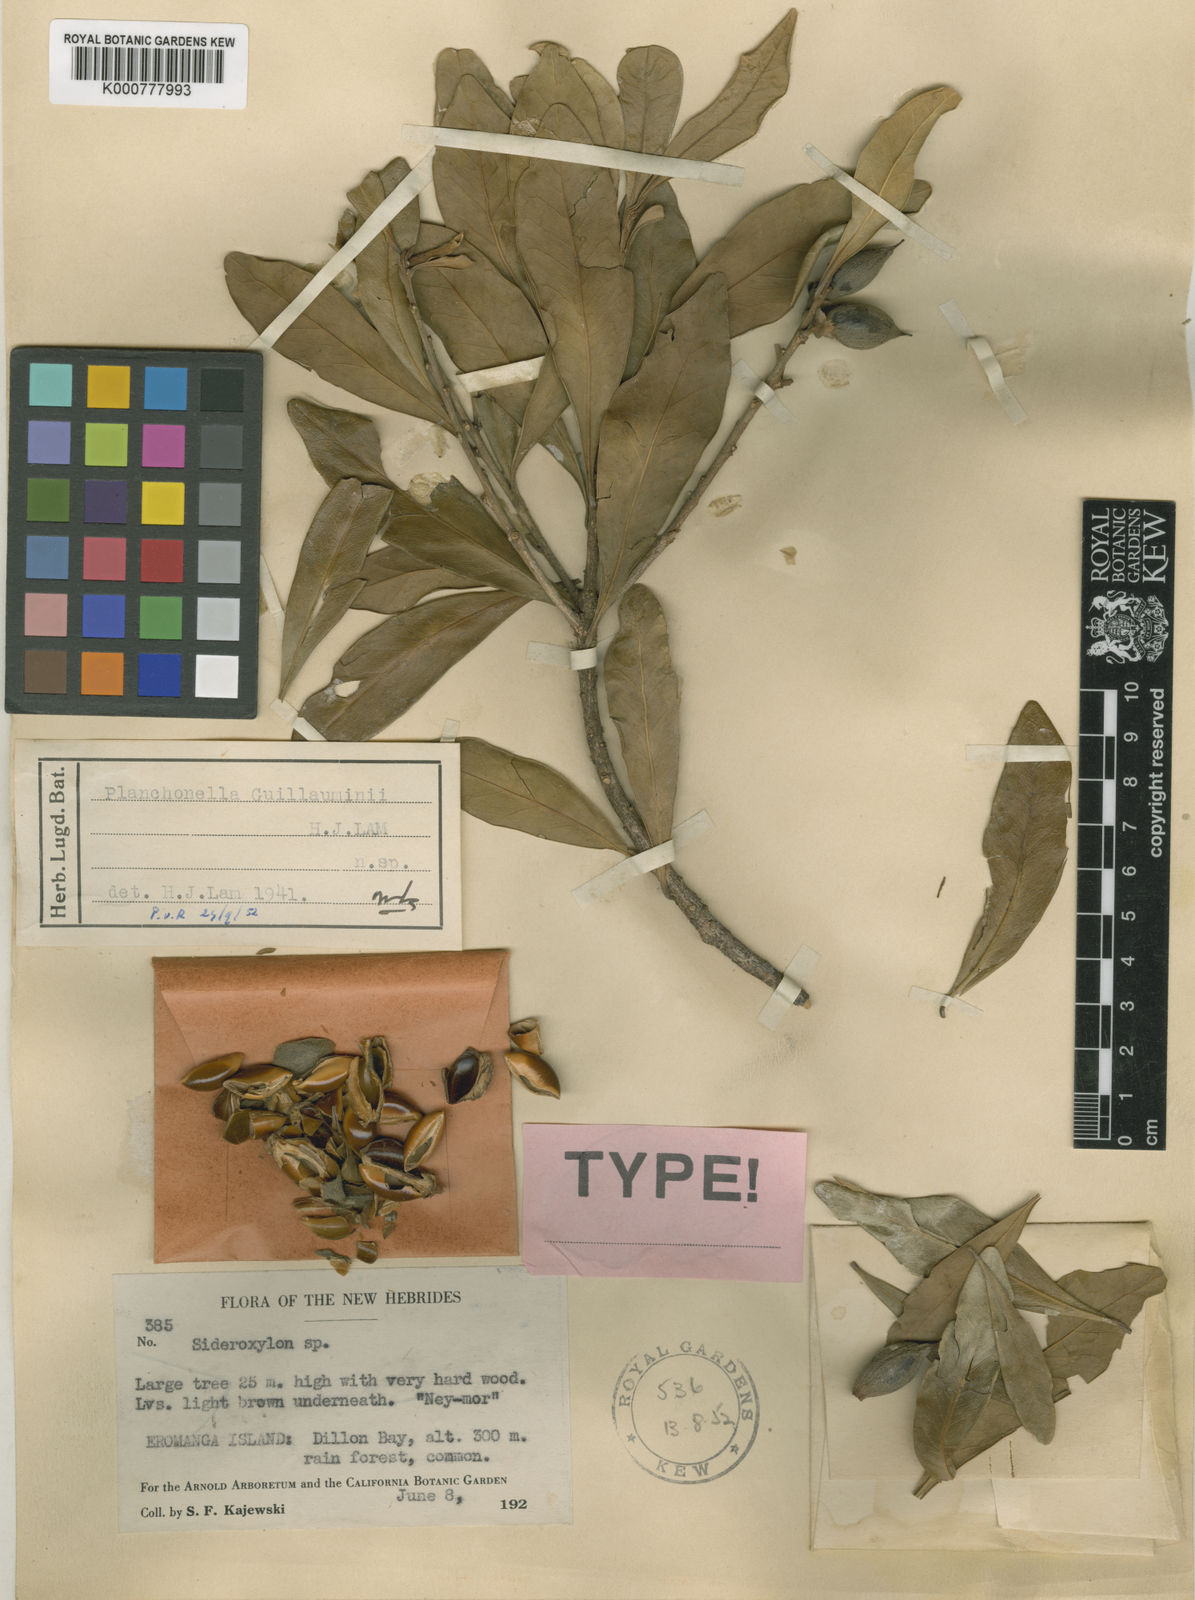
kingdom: Plantae
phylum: Tracheophyta
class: Magnoliopsida
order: Ericales
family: Sapotaceae
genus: Planchonella
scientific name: Planchonella guillauminii
